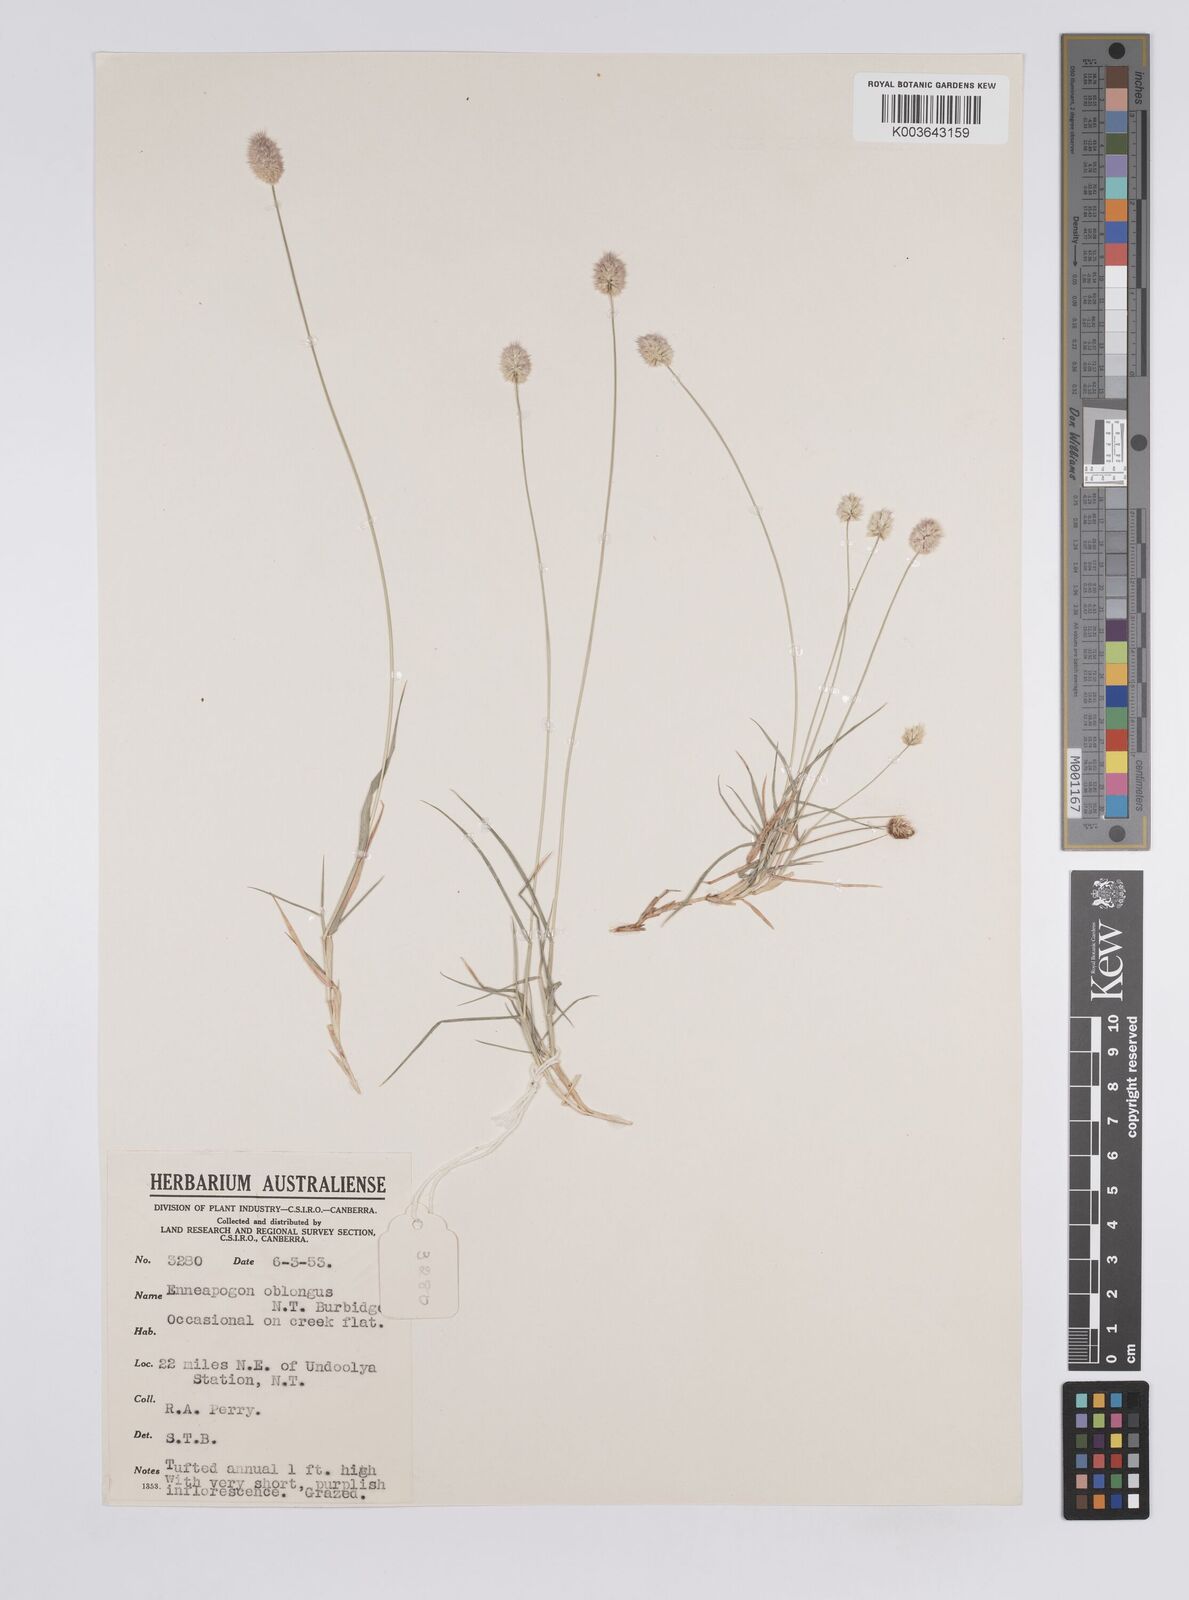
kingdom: Plantae
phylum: Tracheophyta
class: Liliopsida
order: Poales
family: Poaceae
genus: Enneapogon
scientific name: Enneapogon lindleyanus
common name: Conetop nineawn
